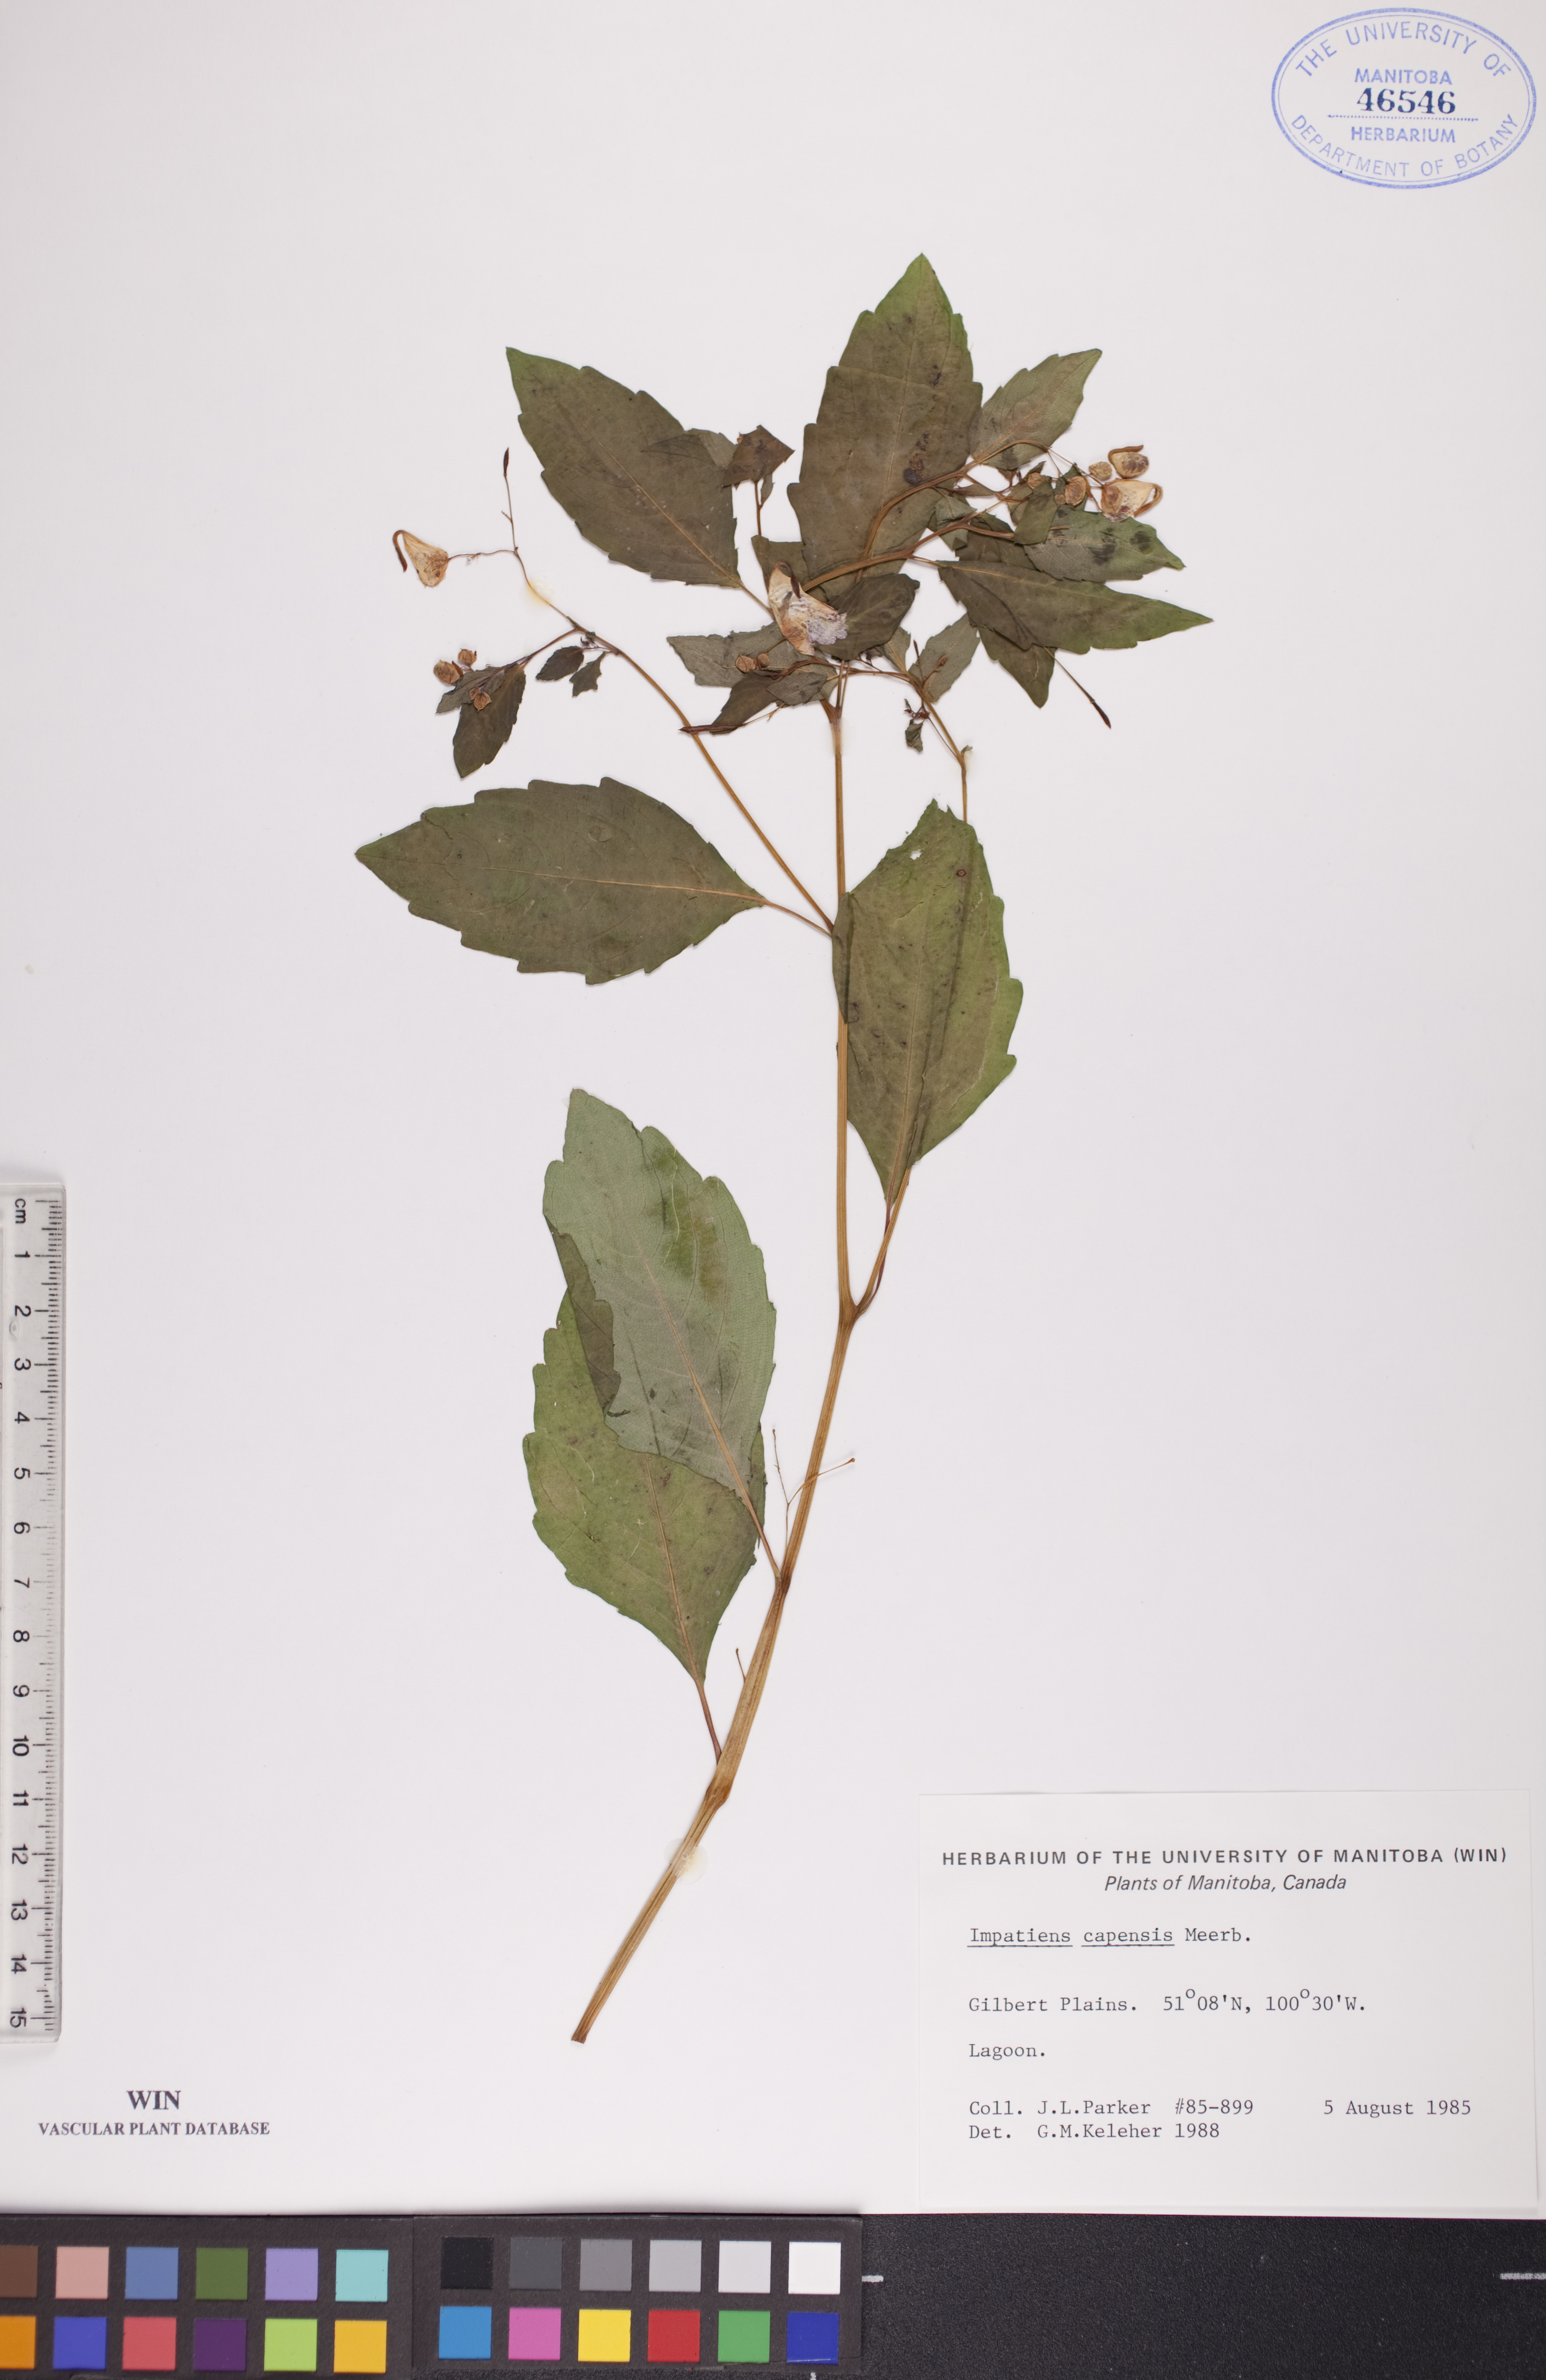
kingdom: Plantae
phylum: Tracheophyta
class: Magnoliopsida
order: Ericales
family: Balsaminaceae
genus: Impatiens
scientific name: Impatiens capensis
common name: Orange balsam
